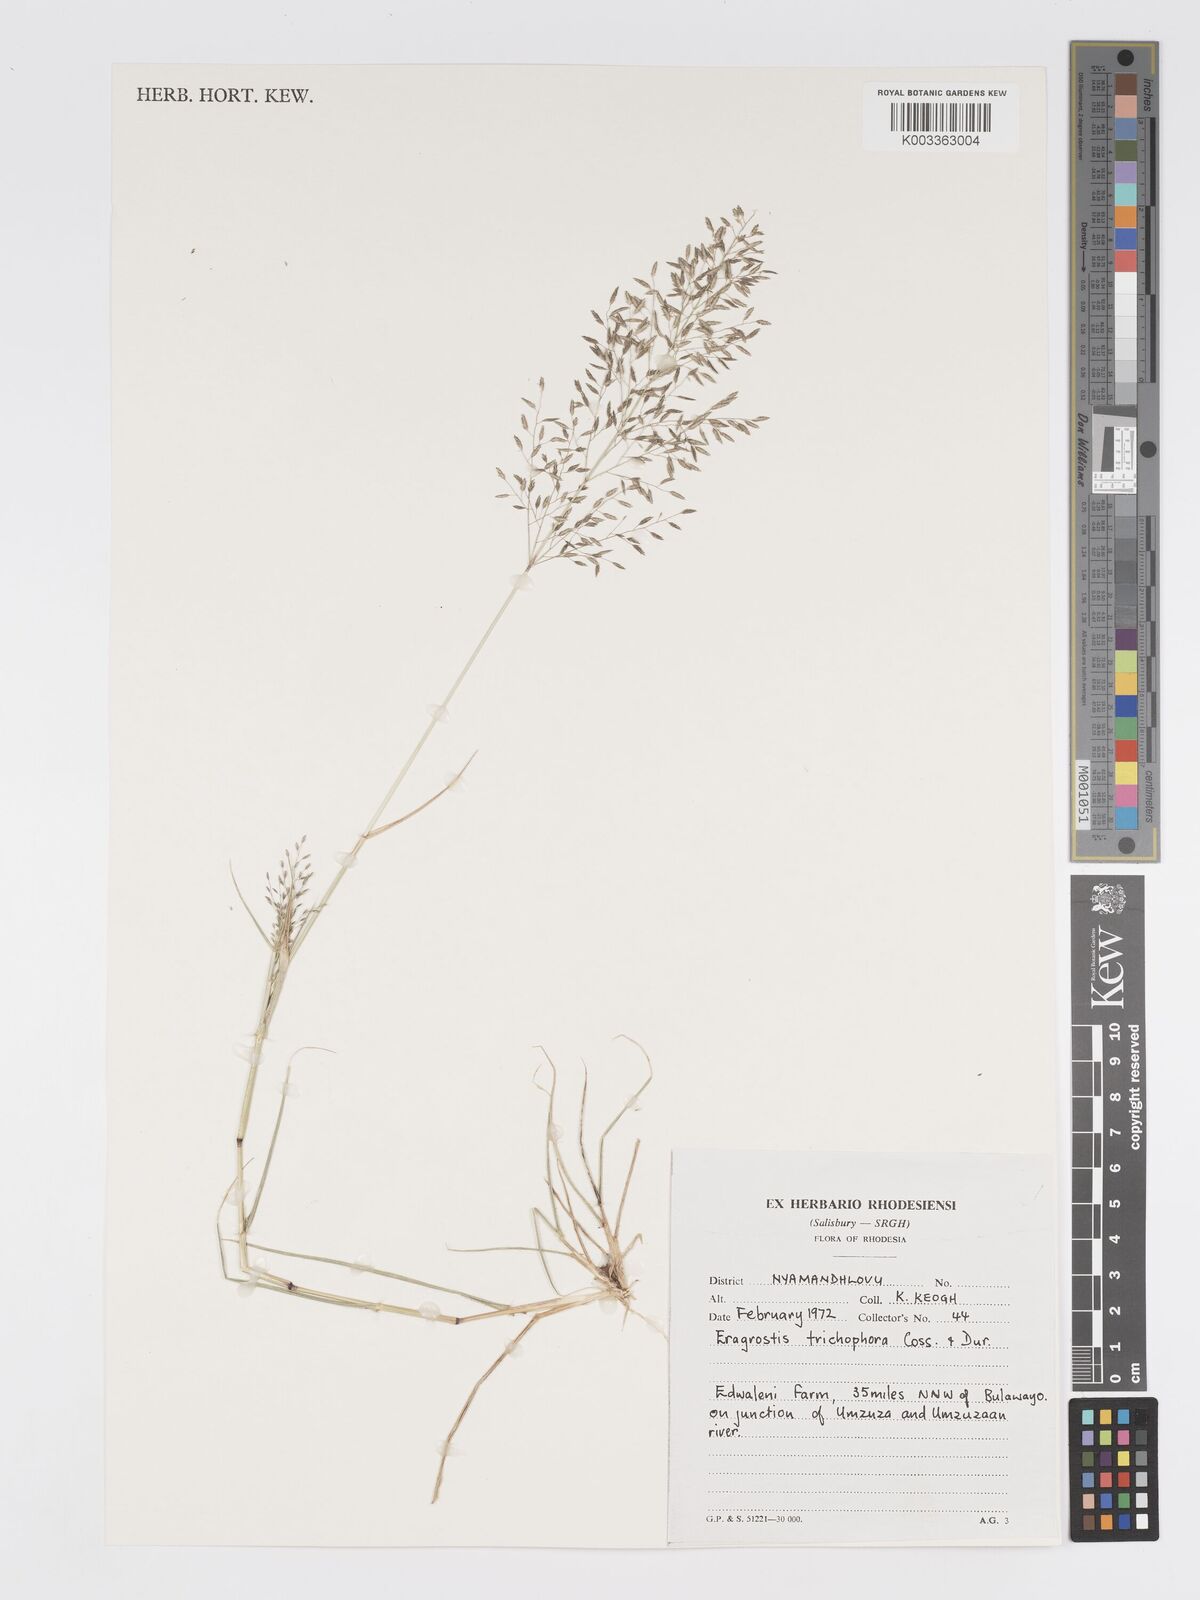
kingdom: Plantae
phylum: Tracheophyta
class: Liliopsida
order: Poales
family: Poaceae
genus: Eragrostis
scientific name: Eragrostis cylindriflora
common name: Cylinderflower lovegrass
